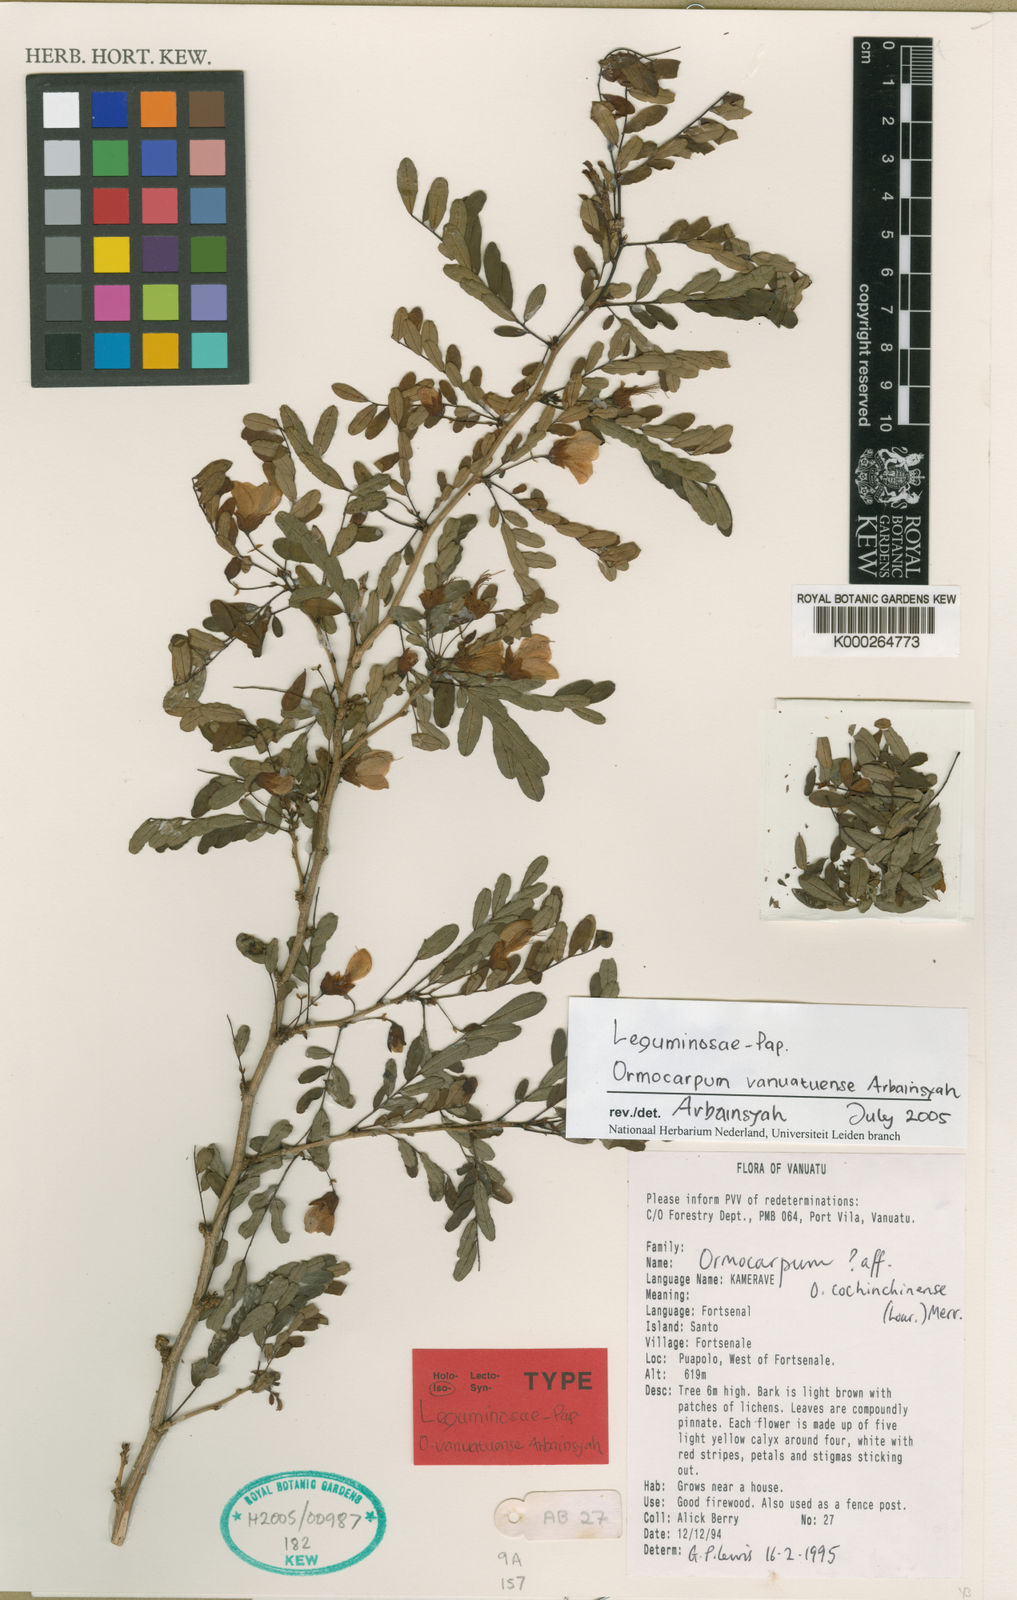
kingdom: Plantae
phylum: Tracheophyta
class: Magnoliopsida
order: Fabales
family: Fabaceae
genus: Ormocarpum
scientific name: Ormocarpum
